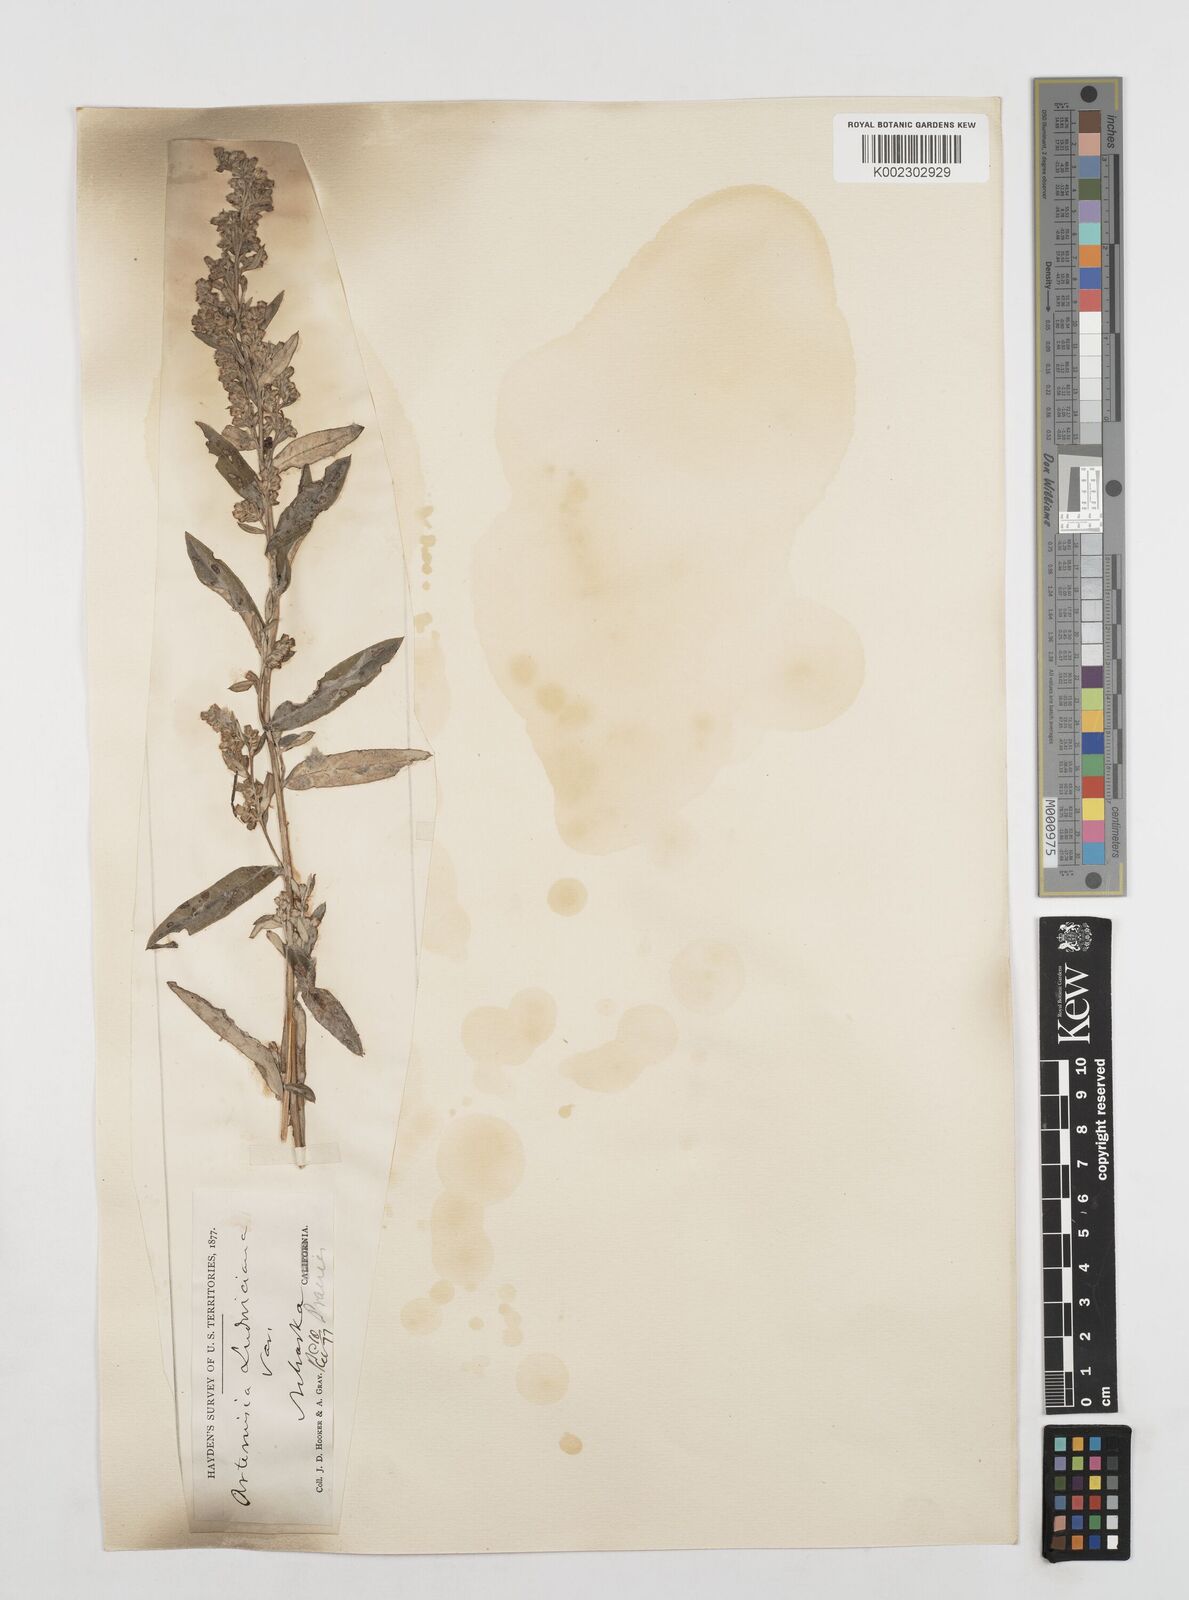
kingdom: Plantae
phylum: Tracheophyta
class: Magnoliopsida
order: Asterales
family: Asteraceae
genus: Artemisia
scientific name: Artemisia douglasiana
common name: Northwest mugwort
